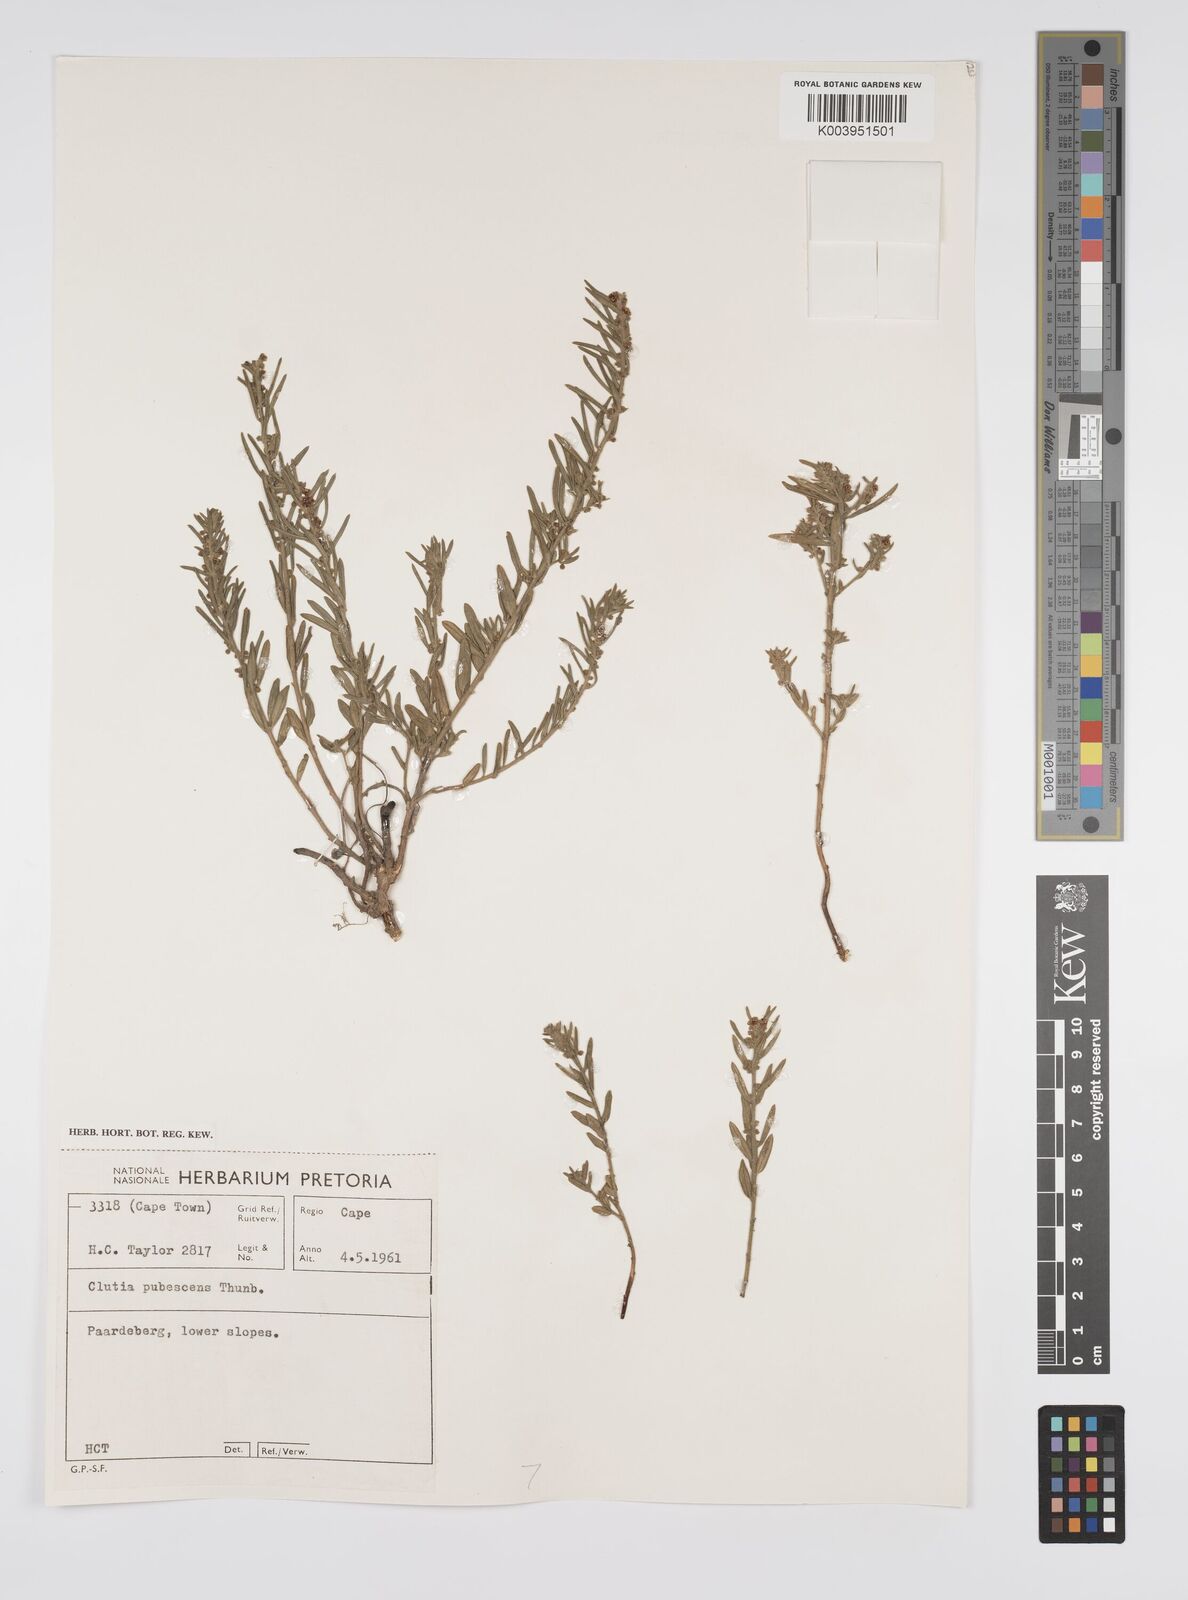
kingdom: Plantae
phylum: Tracheophyta
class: Magnoliopsida
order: Malpighiales
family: Peraceae
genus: Clutia
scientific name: Clutia
